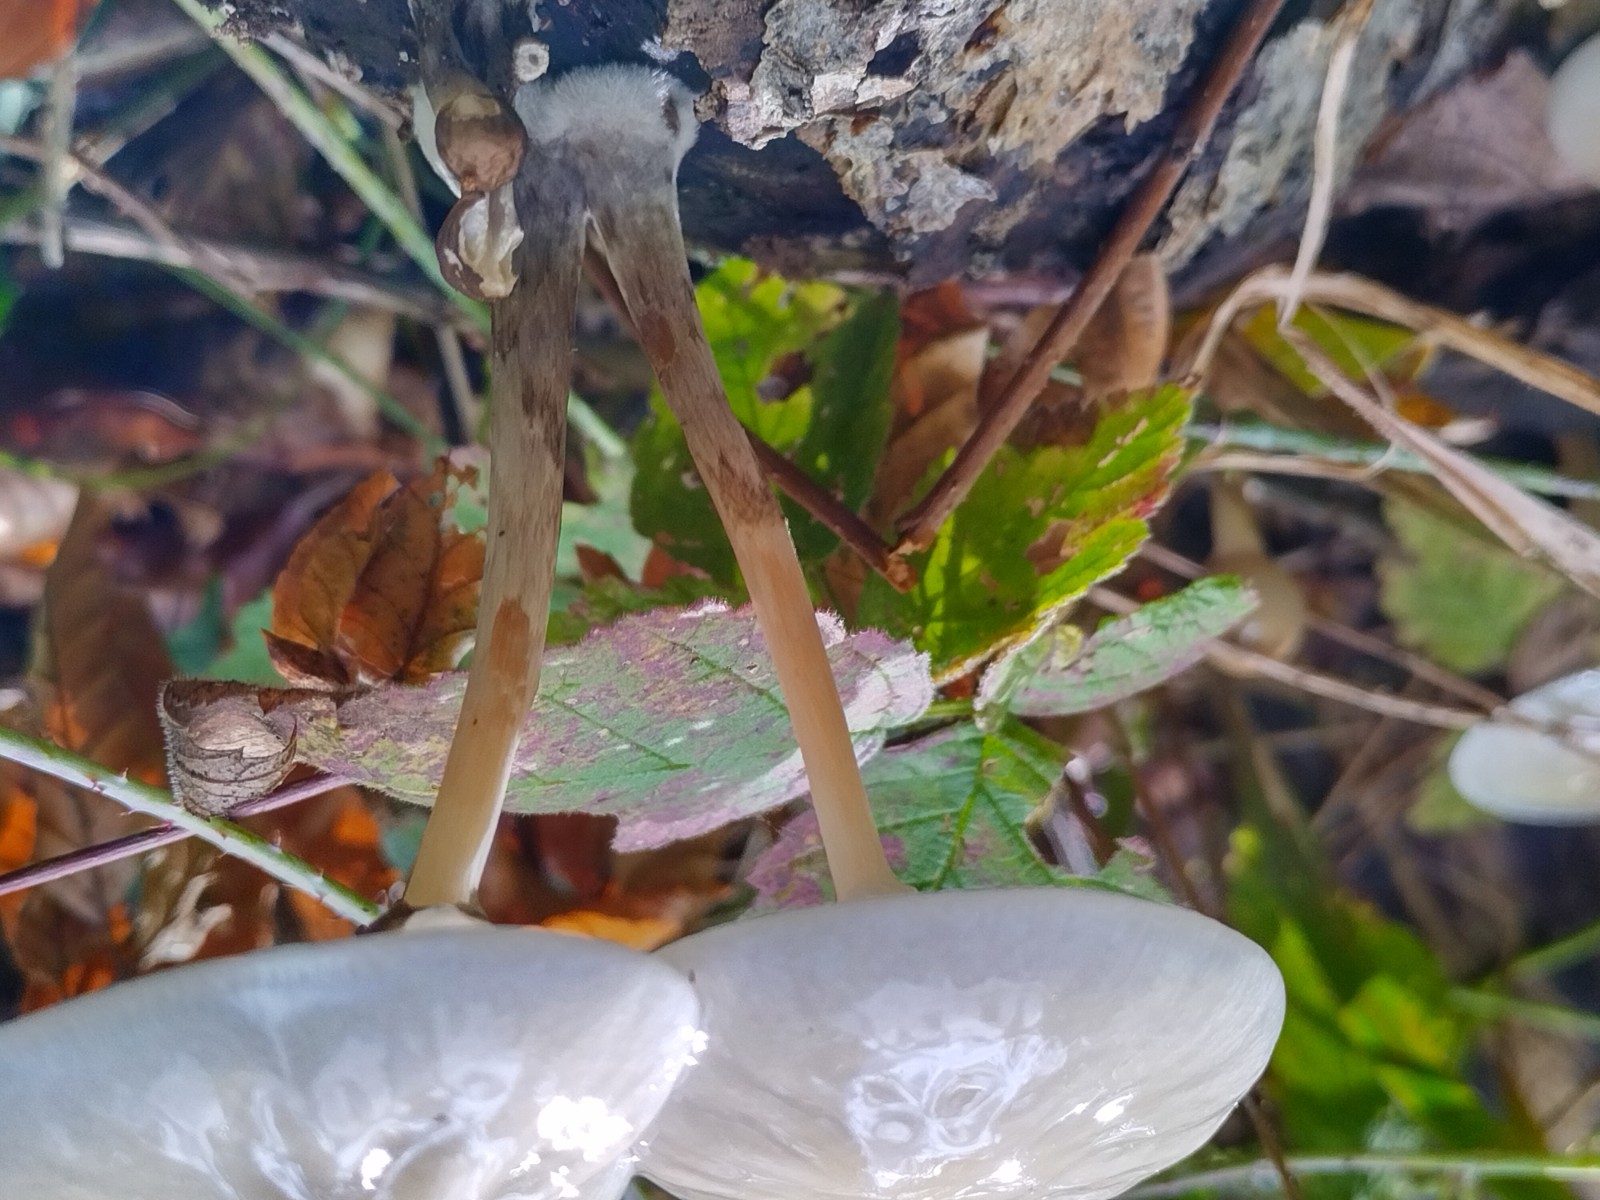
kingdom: Fungi
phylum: Basidiomycota
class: Agaricomycetes
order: Agaricales
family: Physalacriaceae
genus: Mucidula
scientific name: Mucidula mucida
